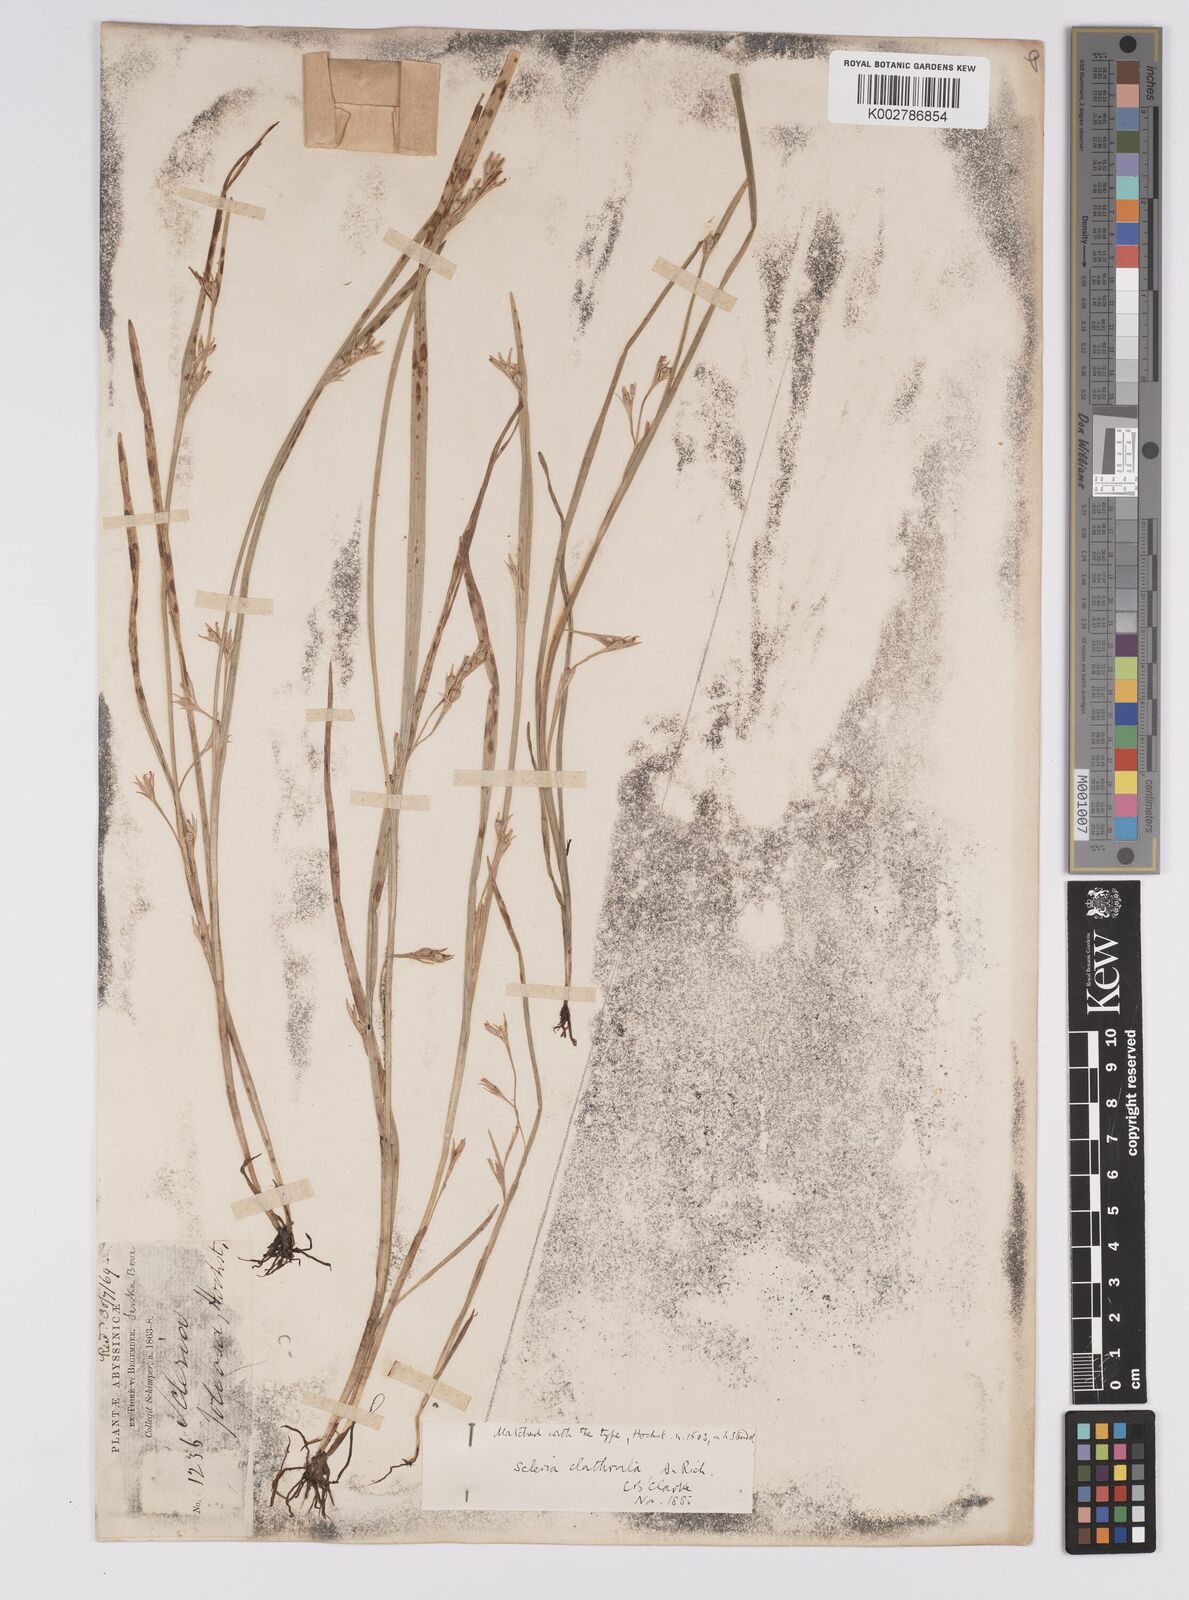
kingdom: Plantae
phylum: Tracheophyta
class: Liliopsida
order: Poales
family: Cyperaceae
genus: Scleria
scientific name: Scleria clathrata
